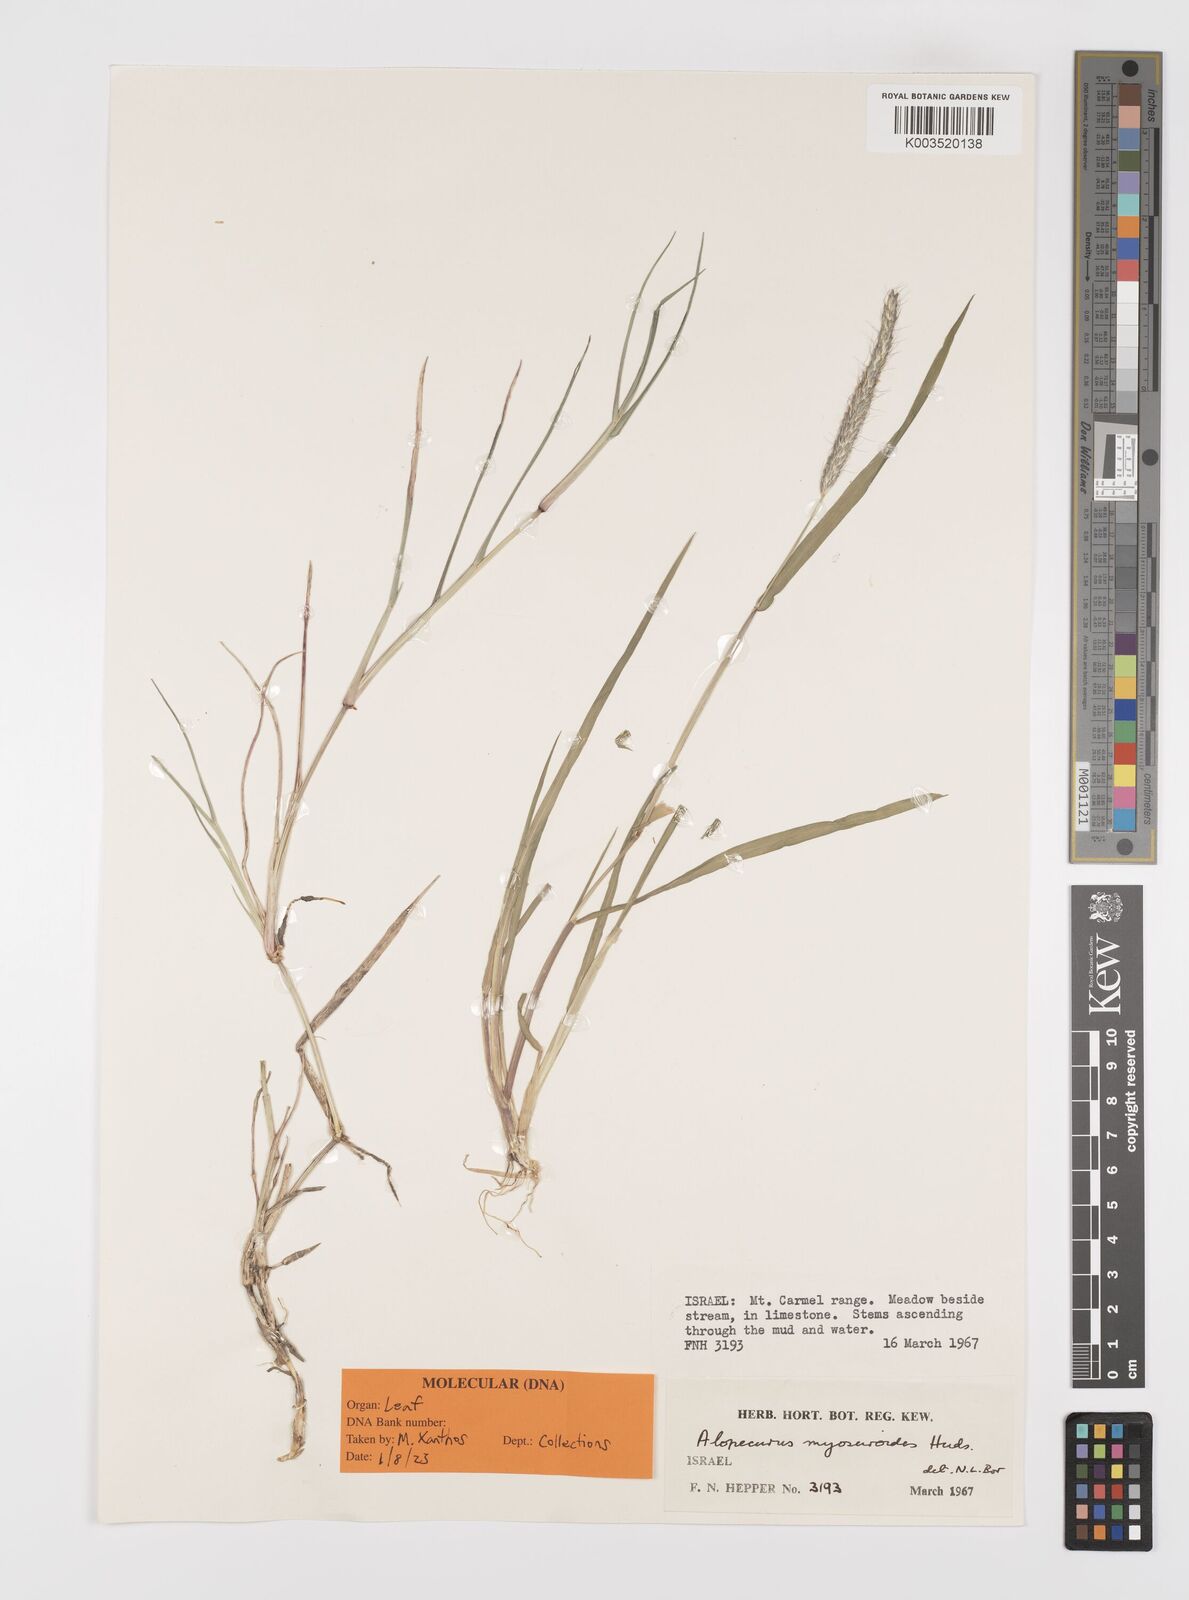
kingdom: Plantae
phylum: Tracheophyta
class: Liliopsida
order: Poales
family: Poaceae
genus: Alopecurus
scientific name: Alopecurus myosuroides
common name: Black-grass
